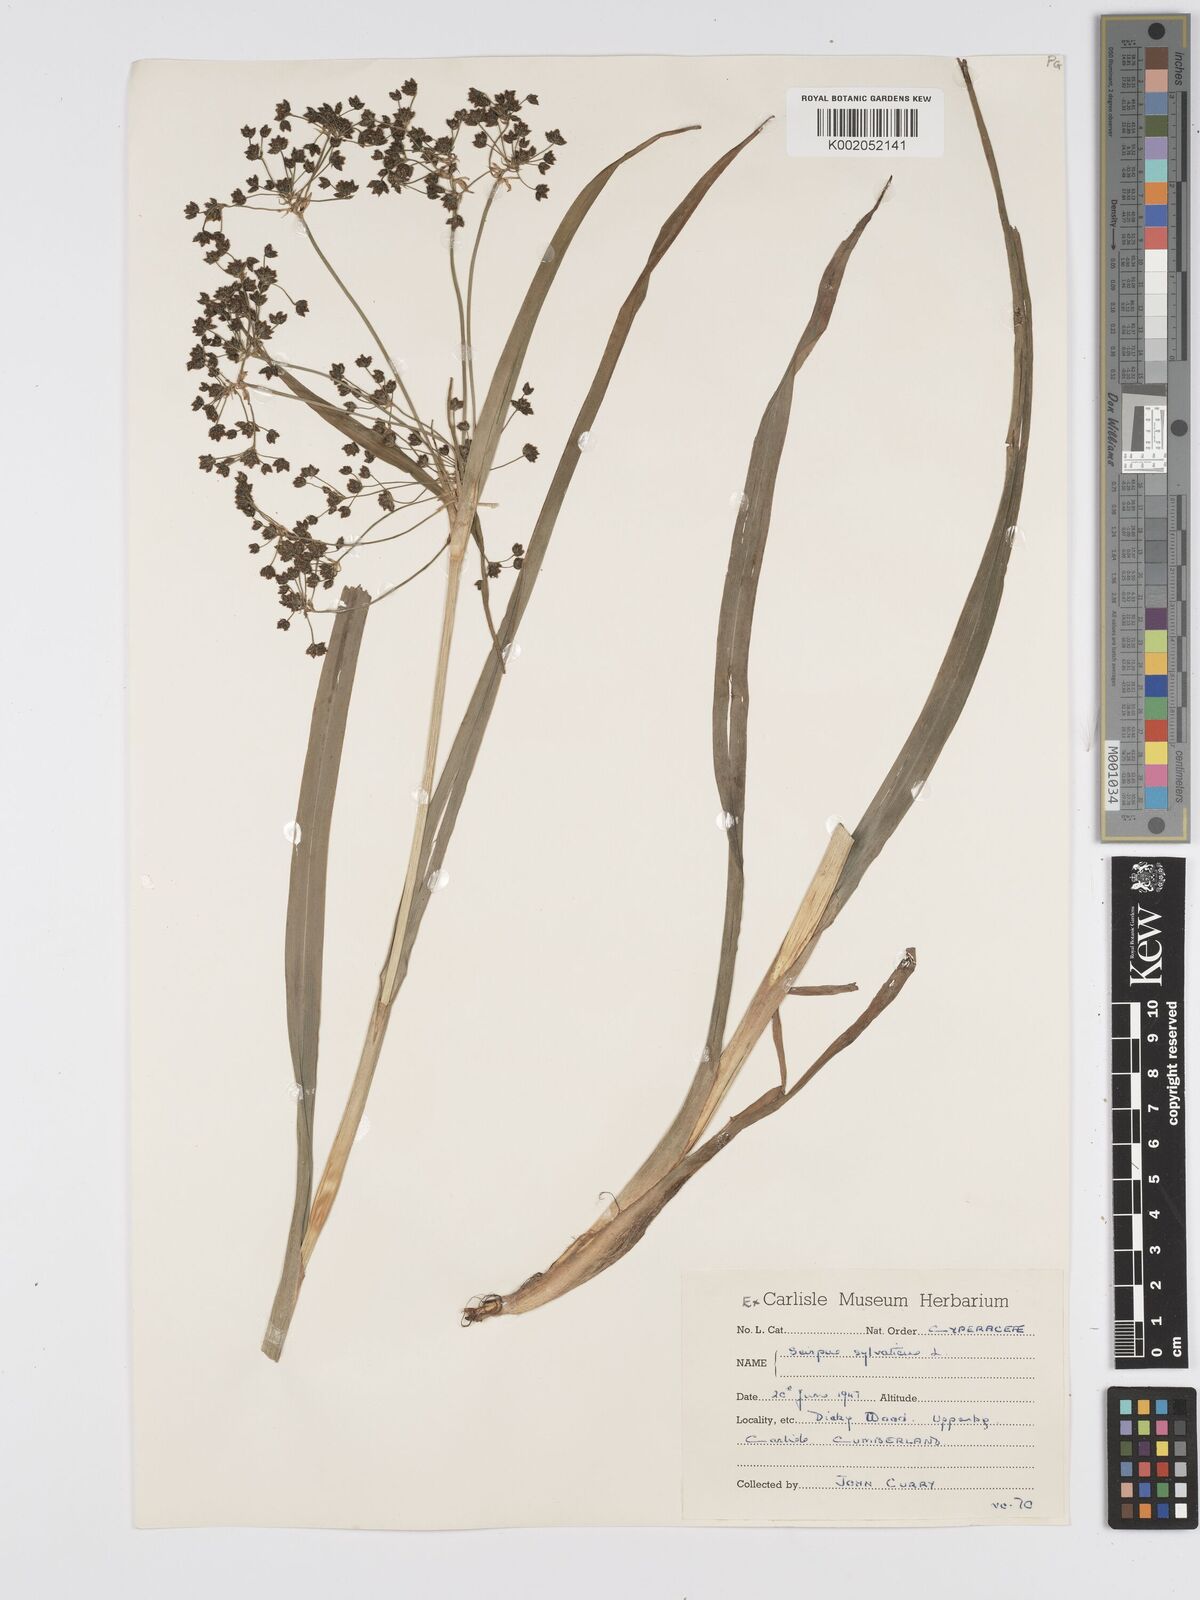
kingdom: Plantae
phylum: Tracheophyta
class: Liliopsida
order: Poales
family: Cyperaceae
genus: Scirpus
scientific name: Scirpus sylvaticus
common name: Wood club-rush
